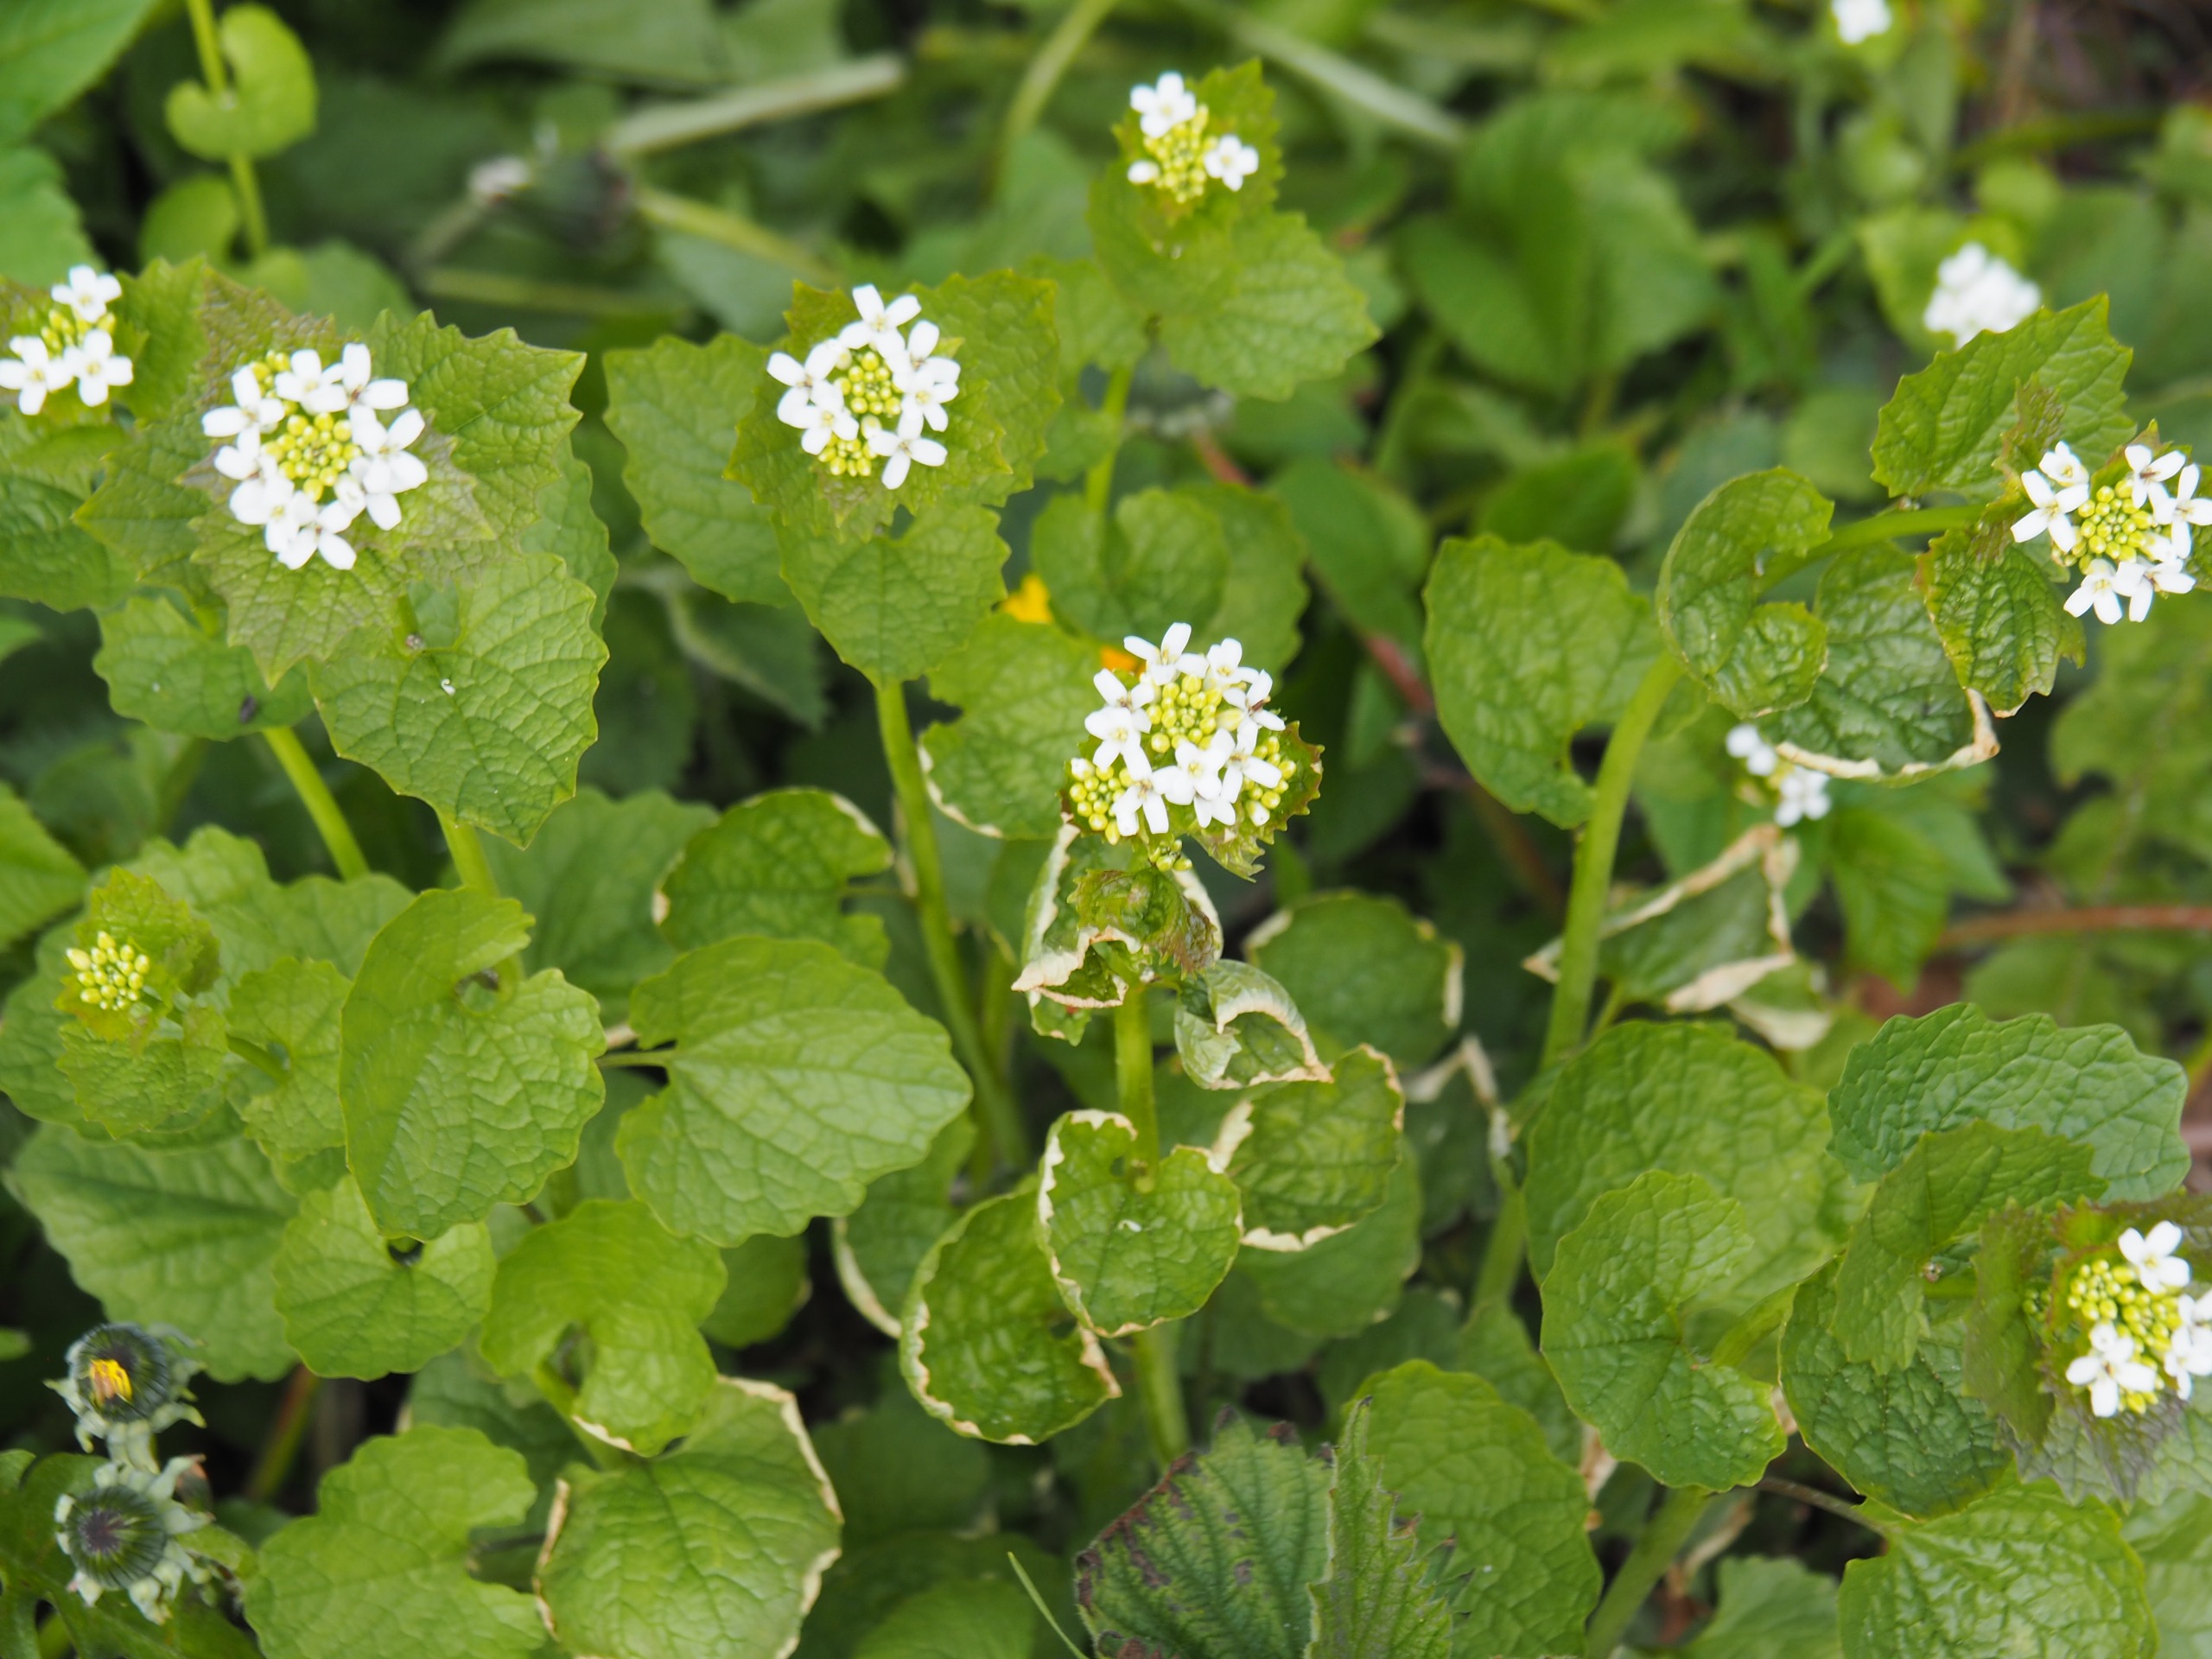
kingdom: Plantae
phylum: Tracheophyta
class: Magnoliopsida
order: Brassicales
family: Brassicaceae
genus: Alliaria
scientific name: Alliaria petiolata
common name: Løgkarse
